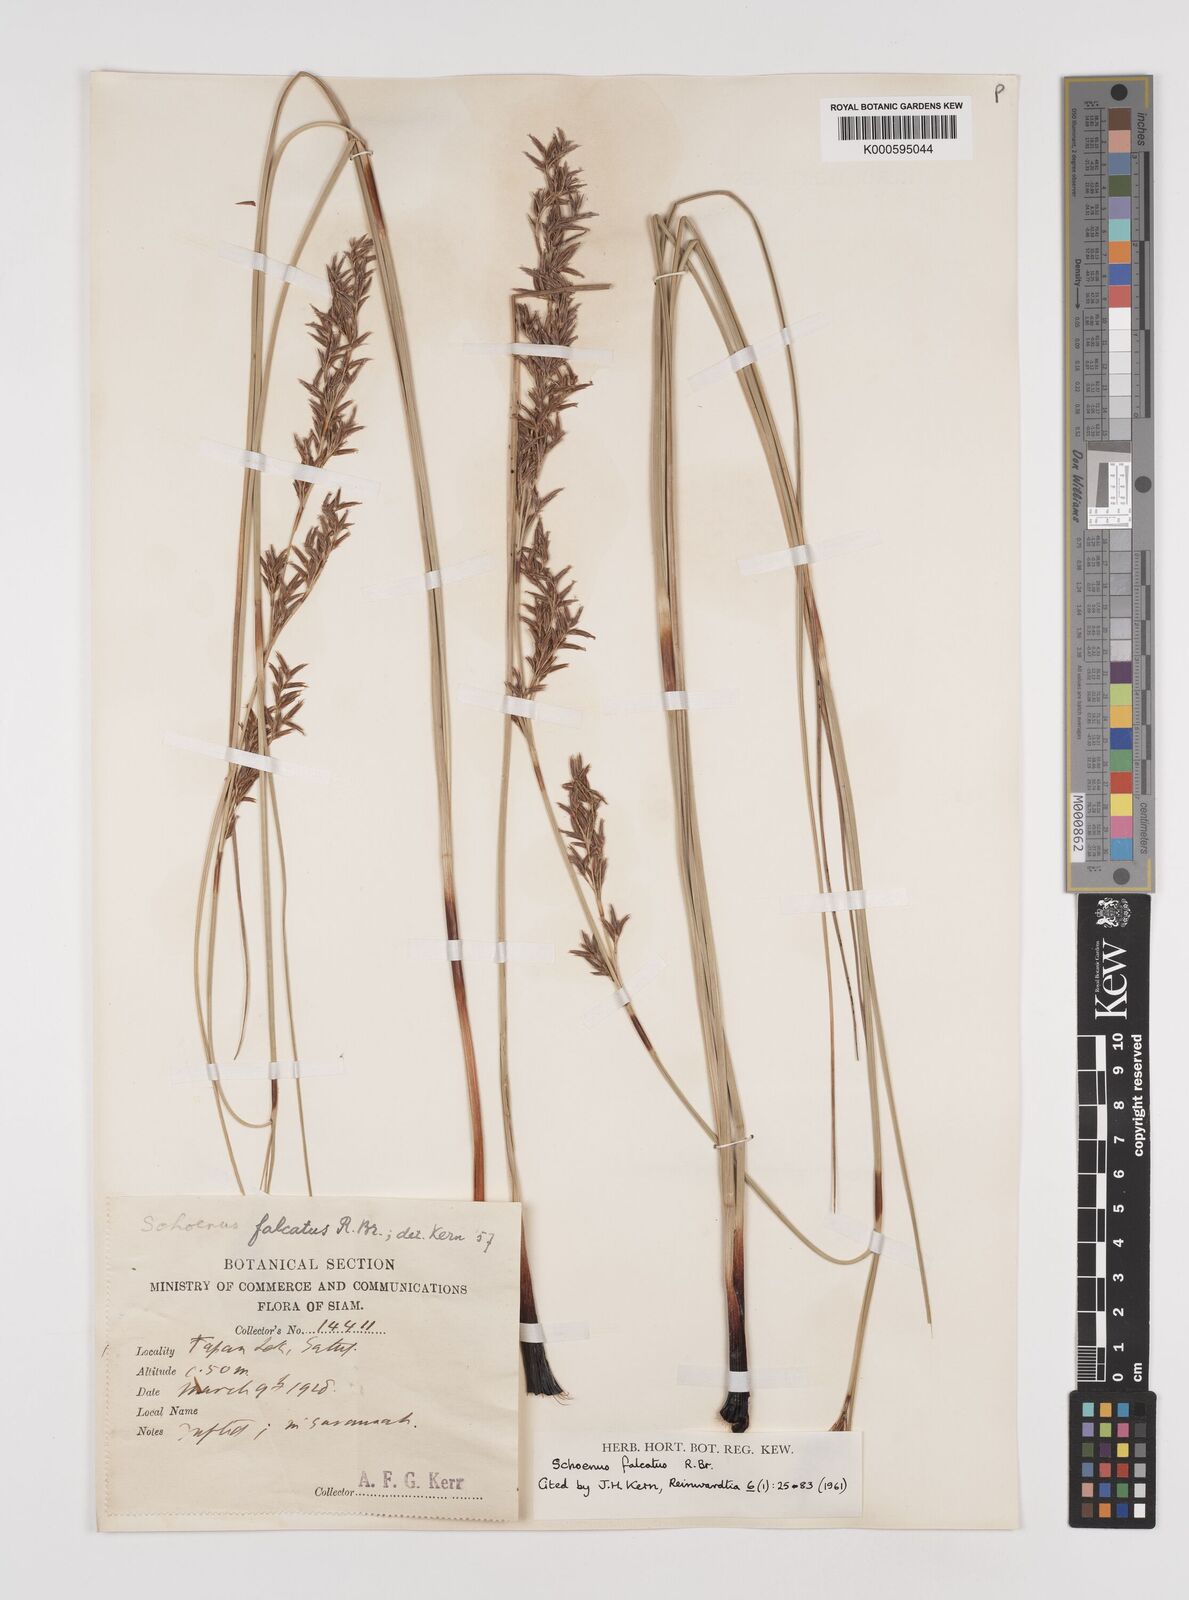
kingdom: Plantae
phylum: Tracheophyta
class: Liliopsida
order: Poales
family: Cyperaceae
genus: Schoenus
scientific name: Schoenus falcatus
